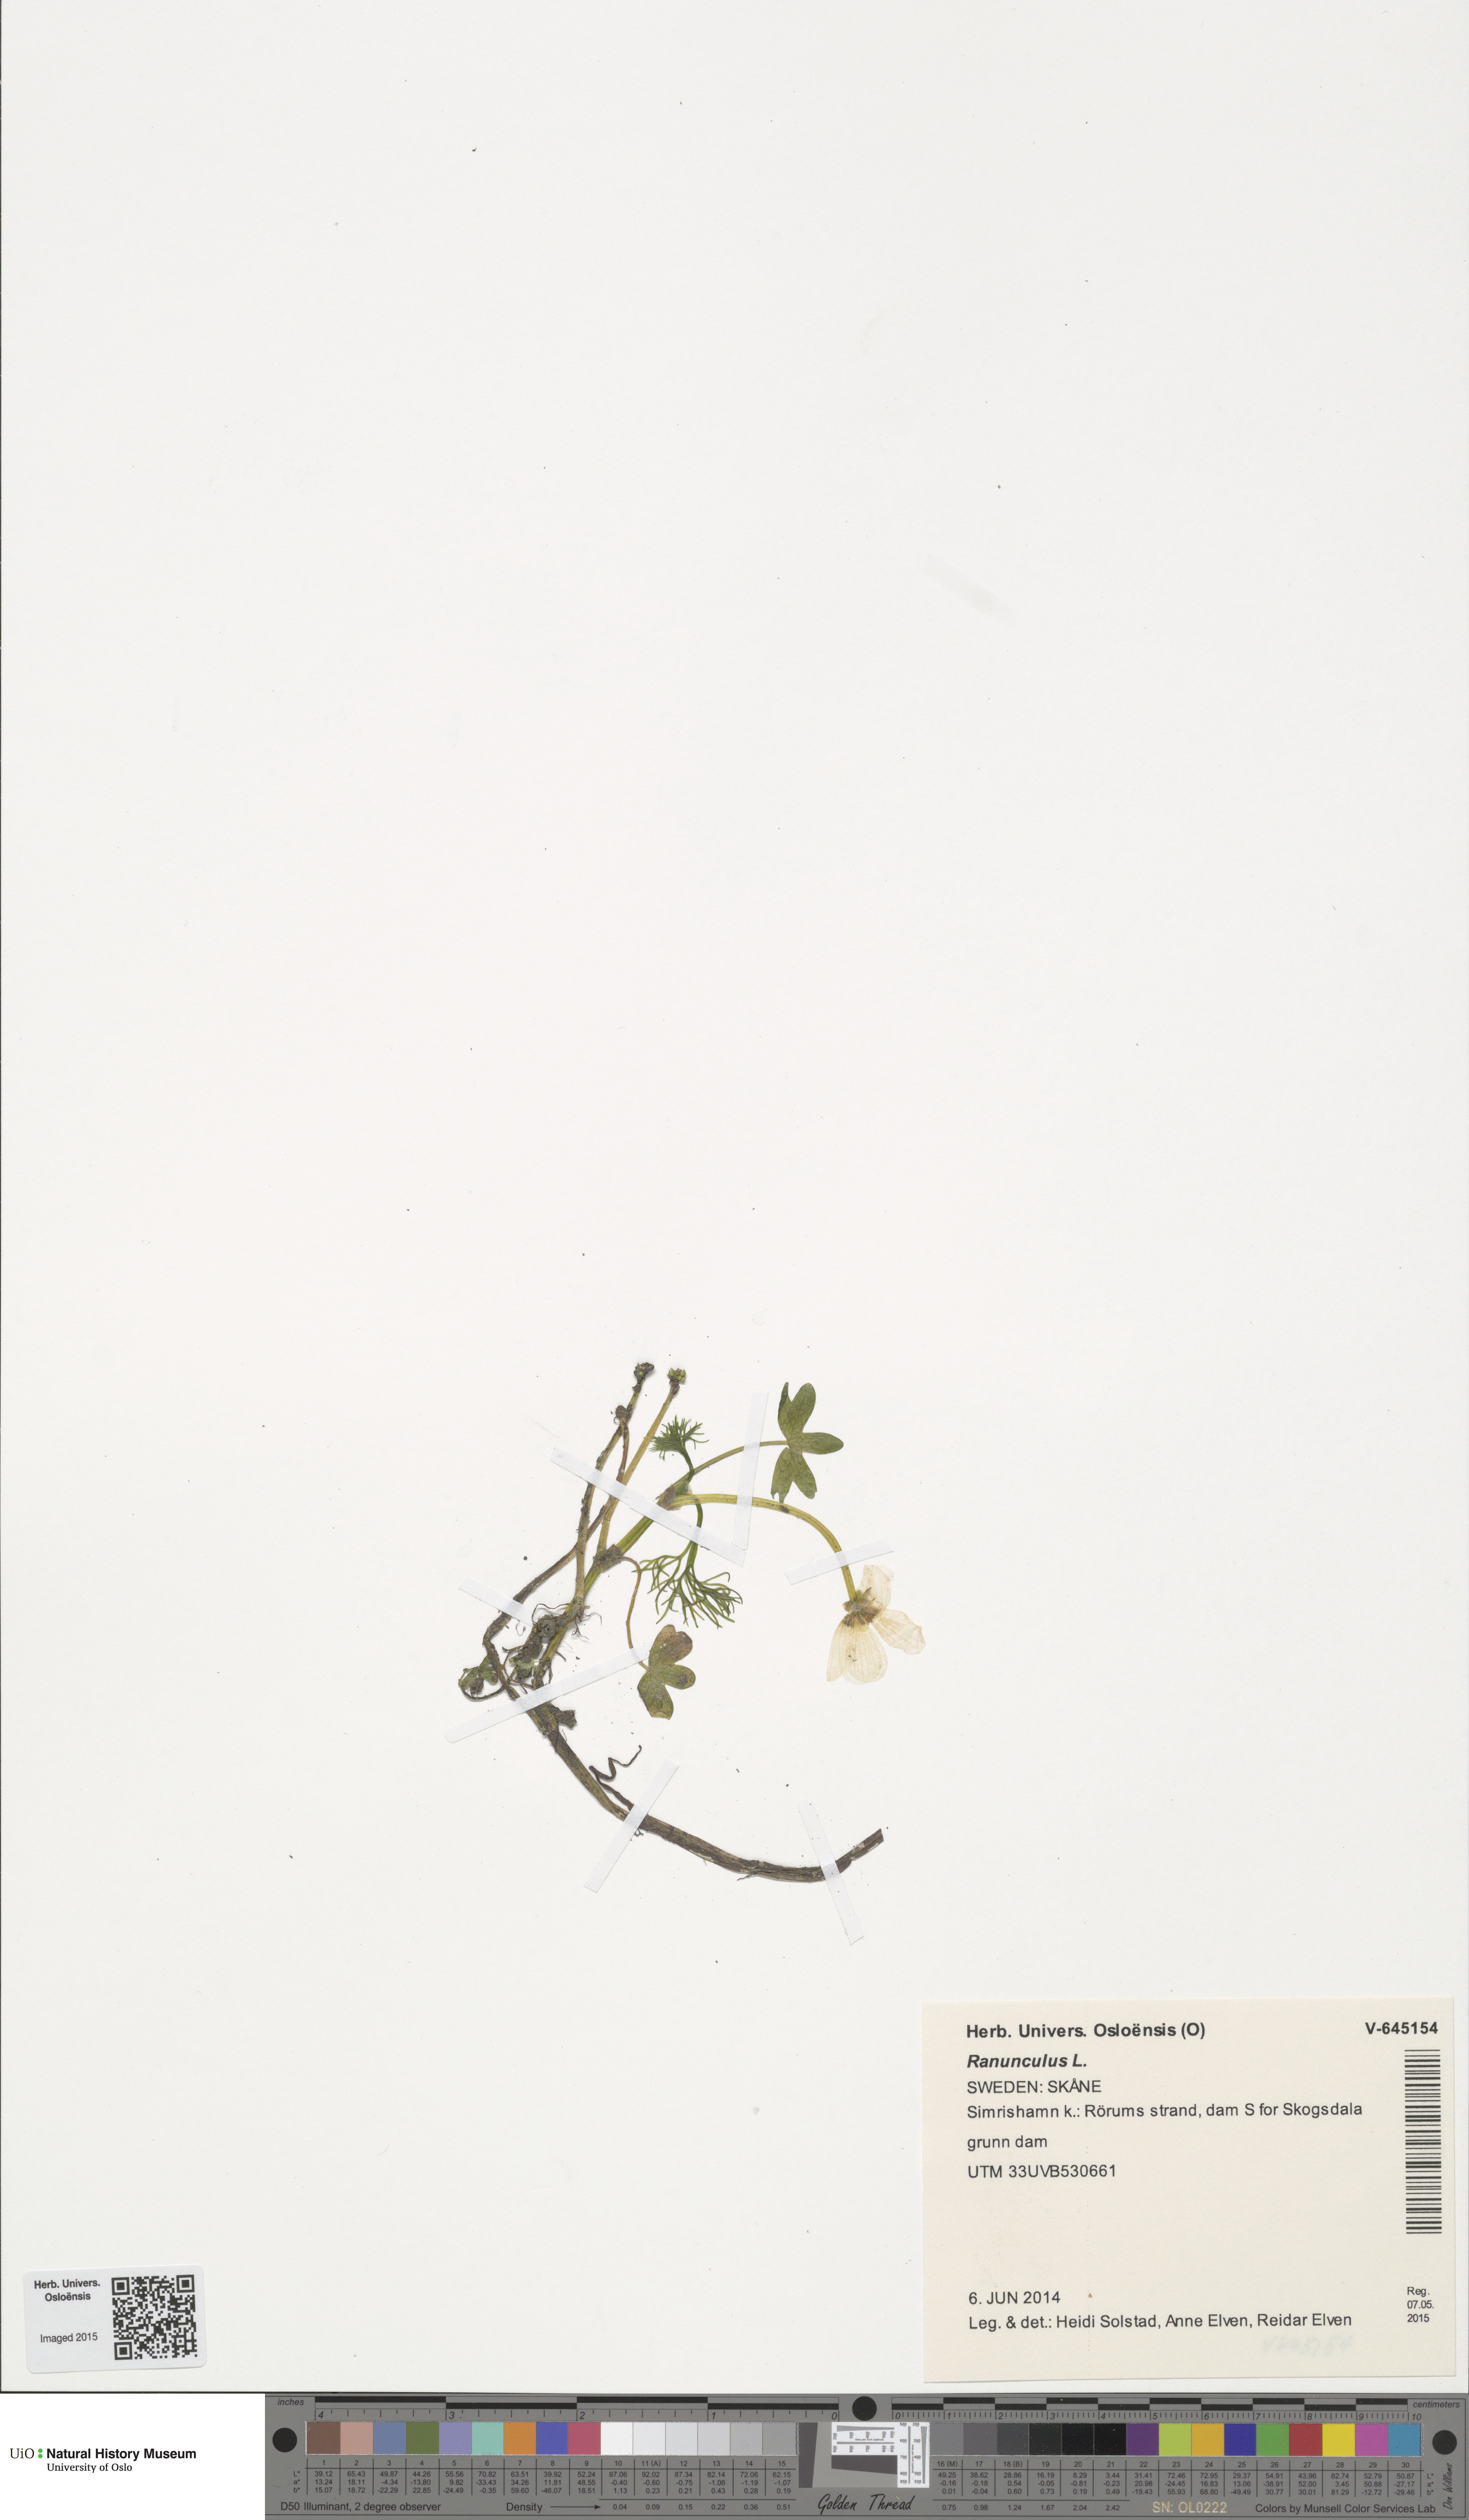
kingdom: Plantae
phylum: Tracheophyta
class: Magnoliopsida
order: Ranunculales
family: Ranunculaceae
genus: Ranunculus
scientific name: Ranunculus schmalhausenii
